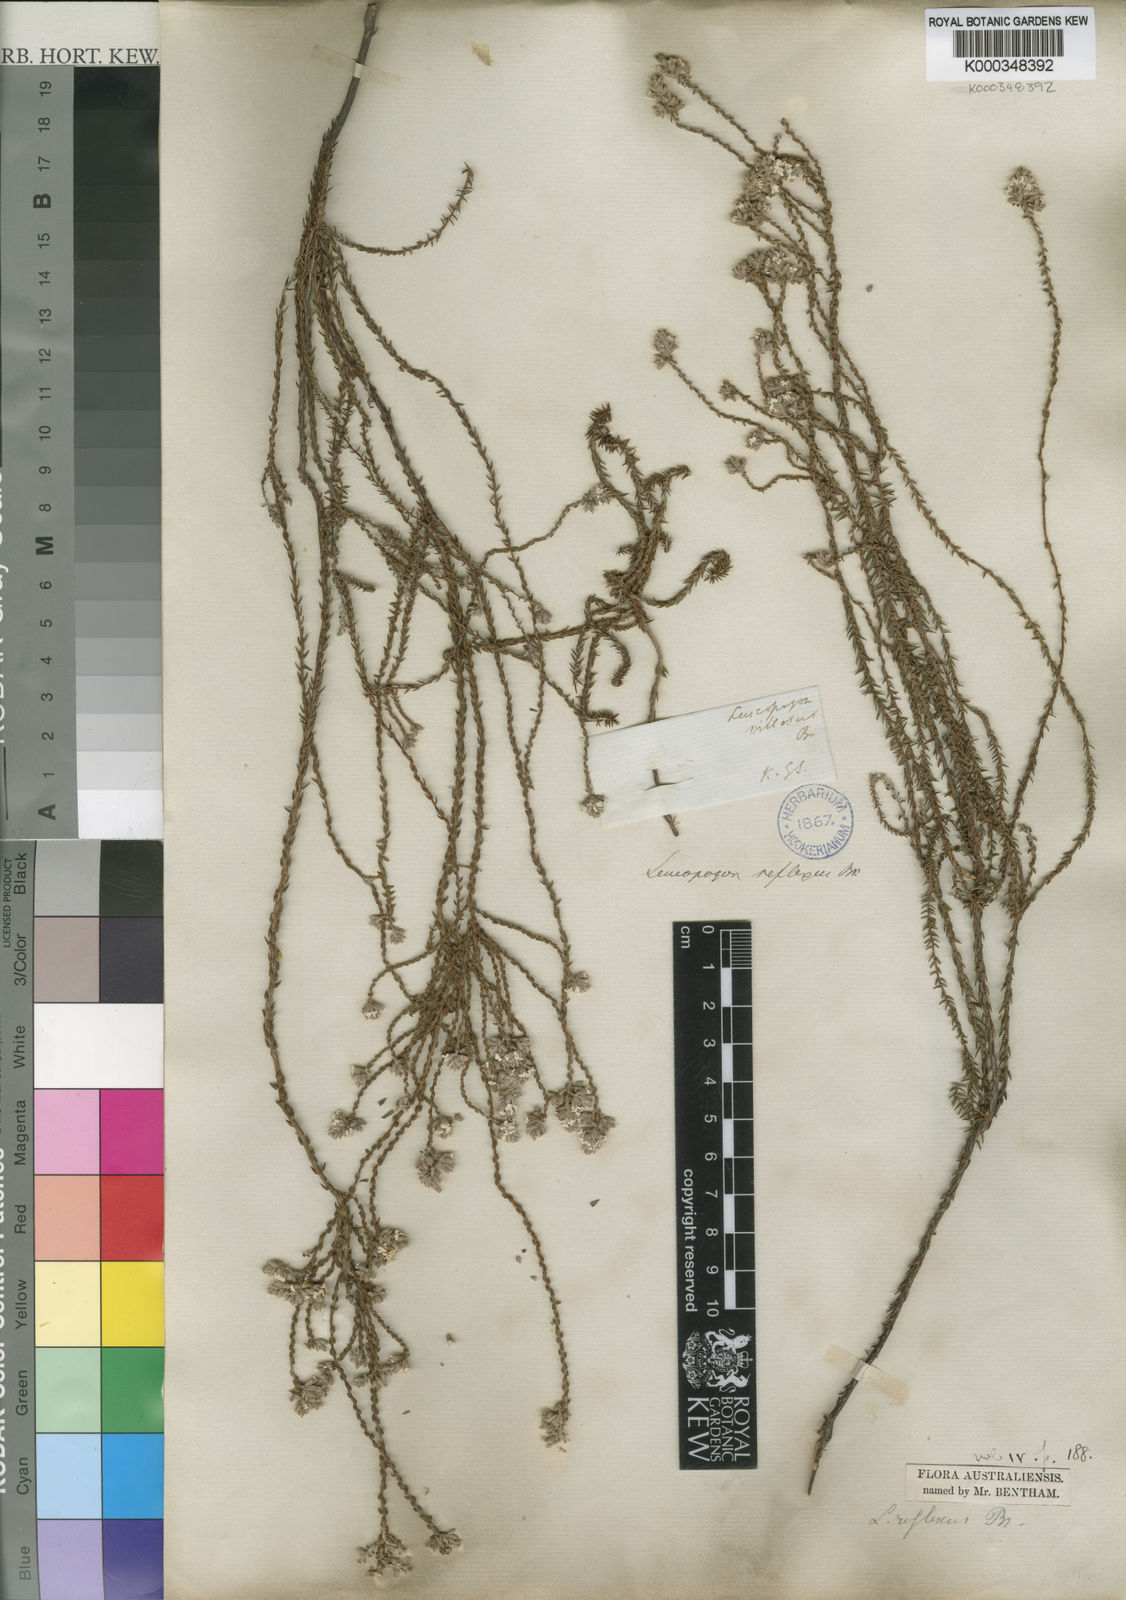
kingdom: Plantae
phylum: Tracheophyta
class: Magnoliopsida
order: Ericales
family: Ericaceae
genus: Leucopogon
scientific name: Leucopogon reflexus
